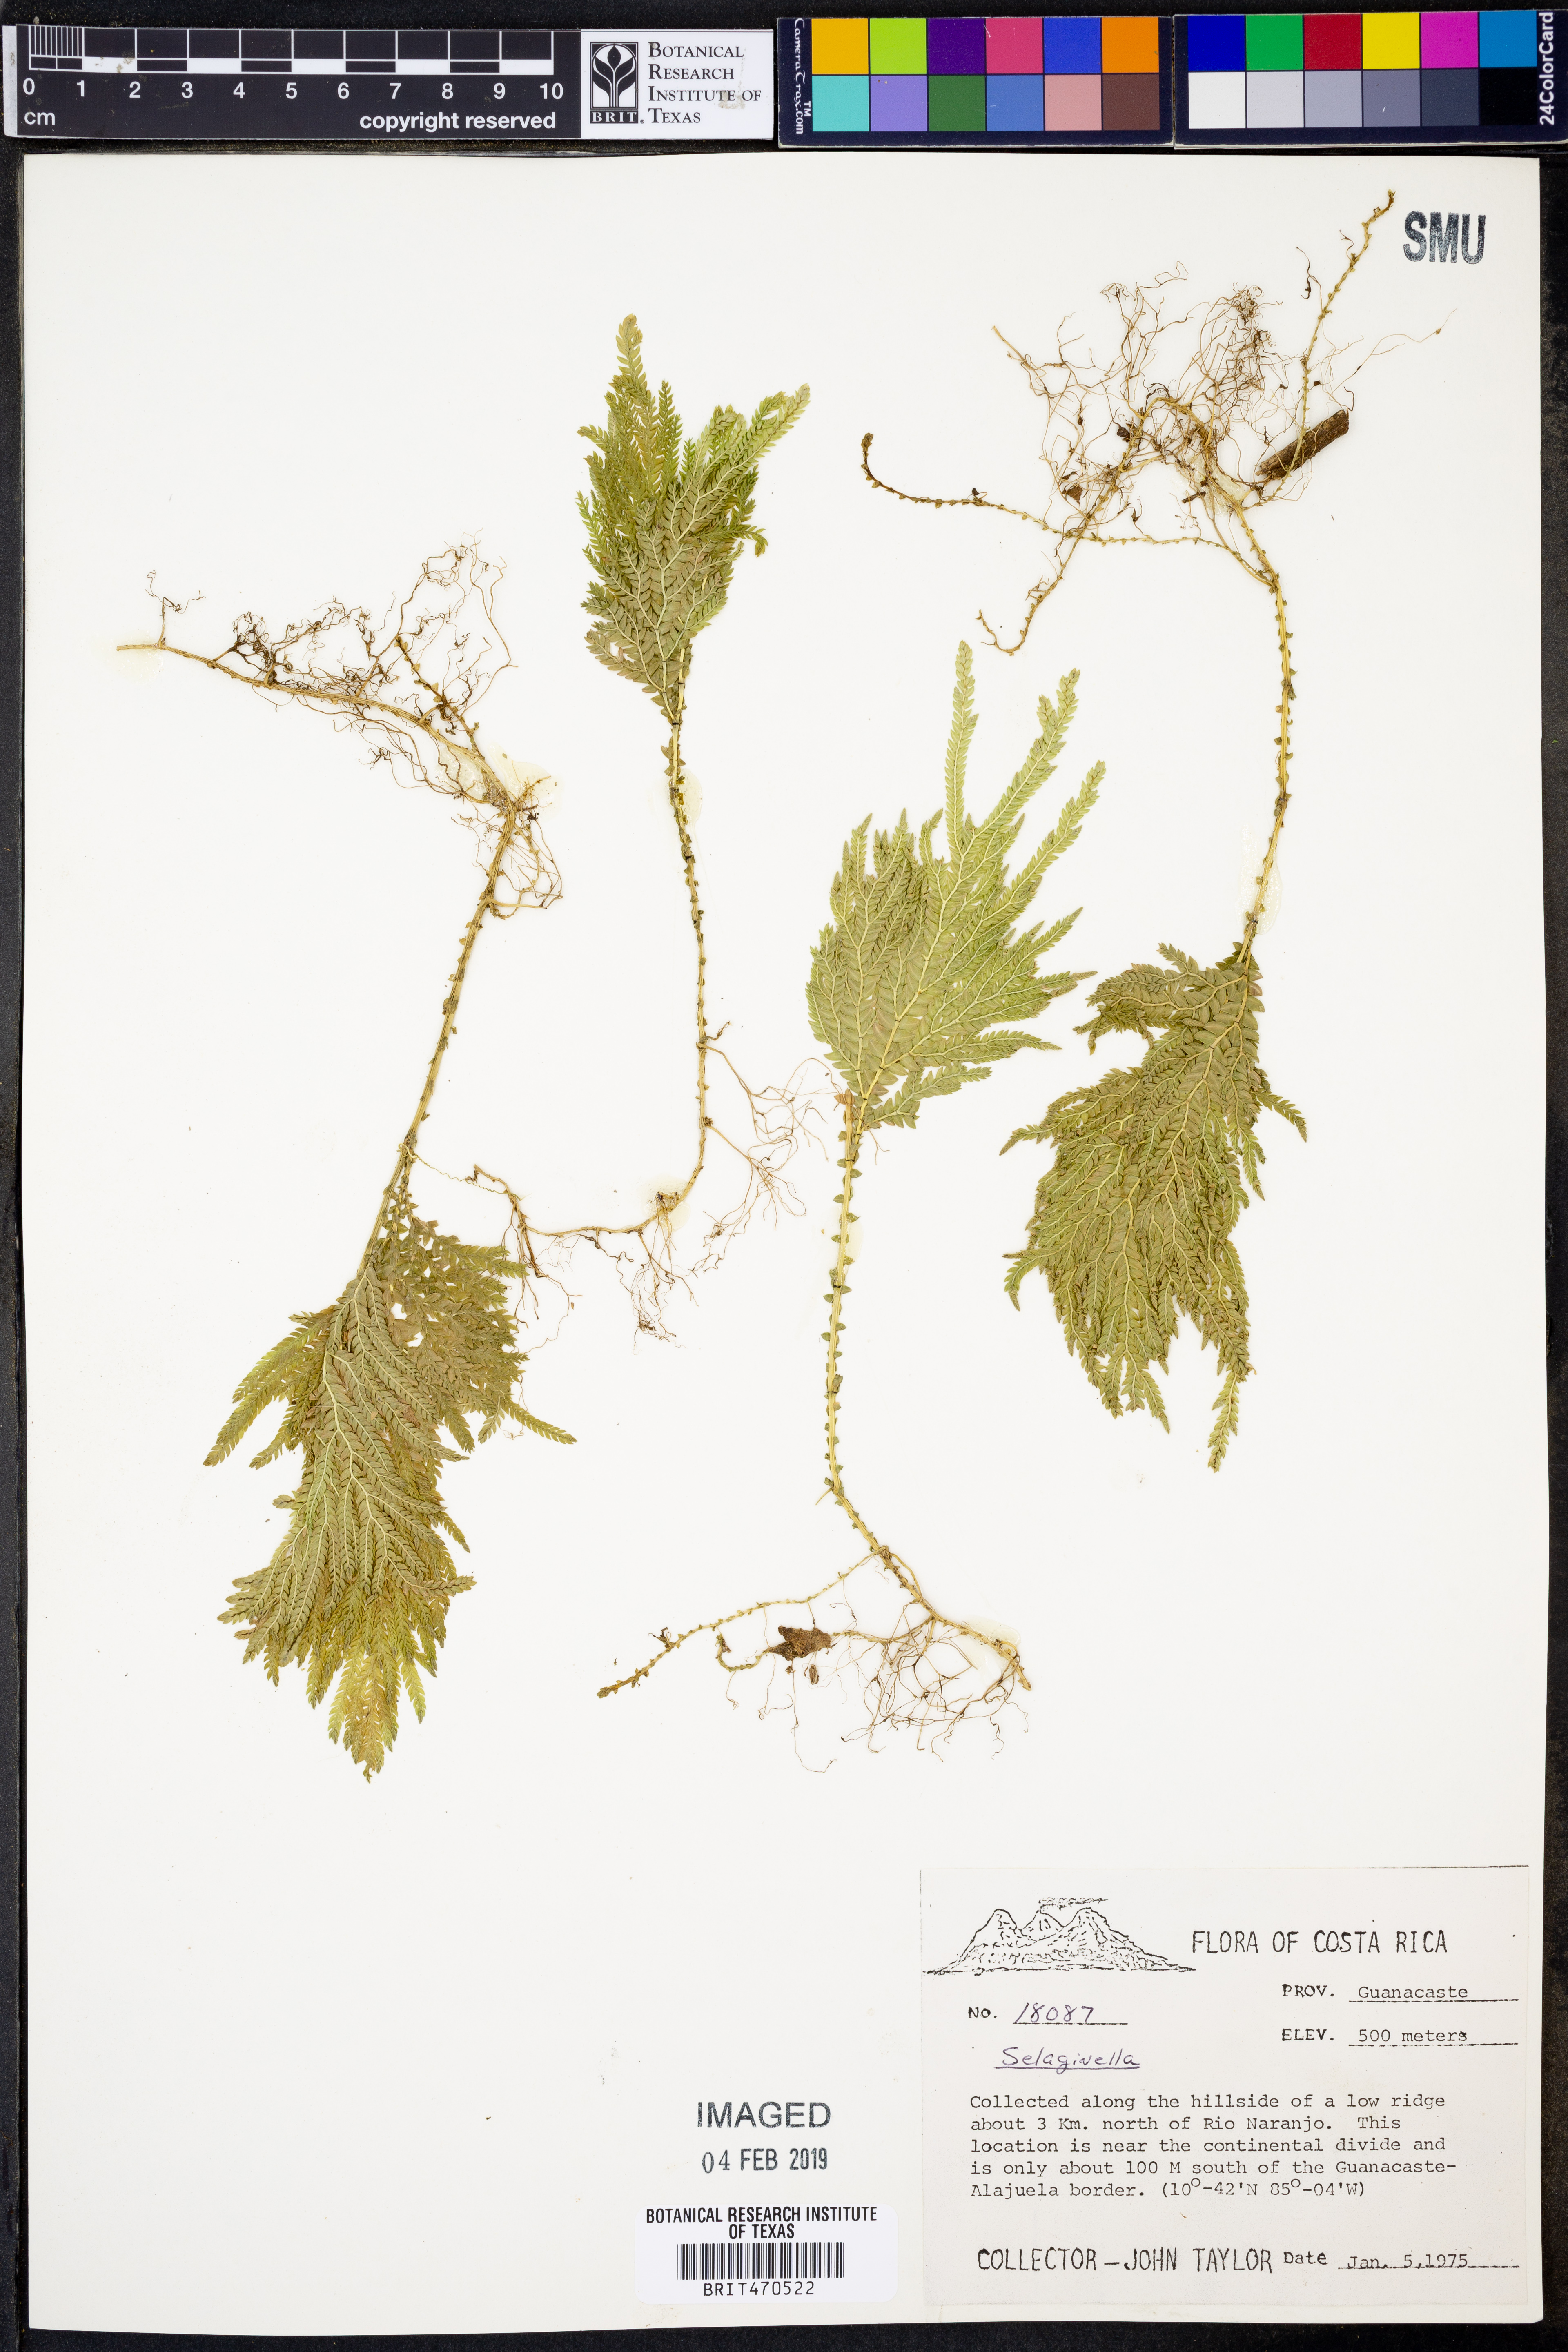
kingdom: Plantae
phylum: Tracheophyta
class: Lycopodiopsida
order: Selaginellales
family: Selaginellaceae
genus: Selaginella
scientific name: Selaginella
